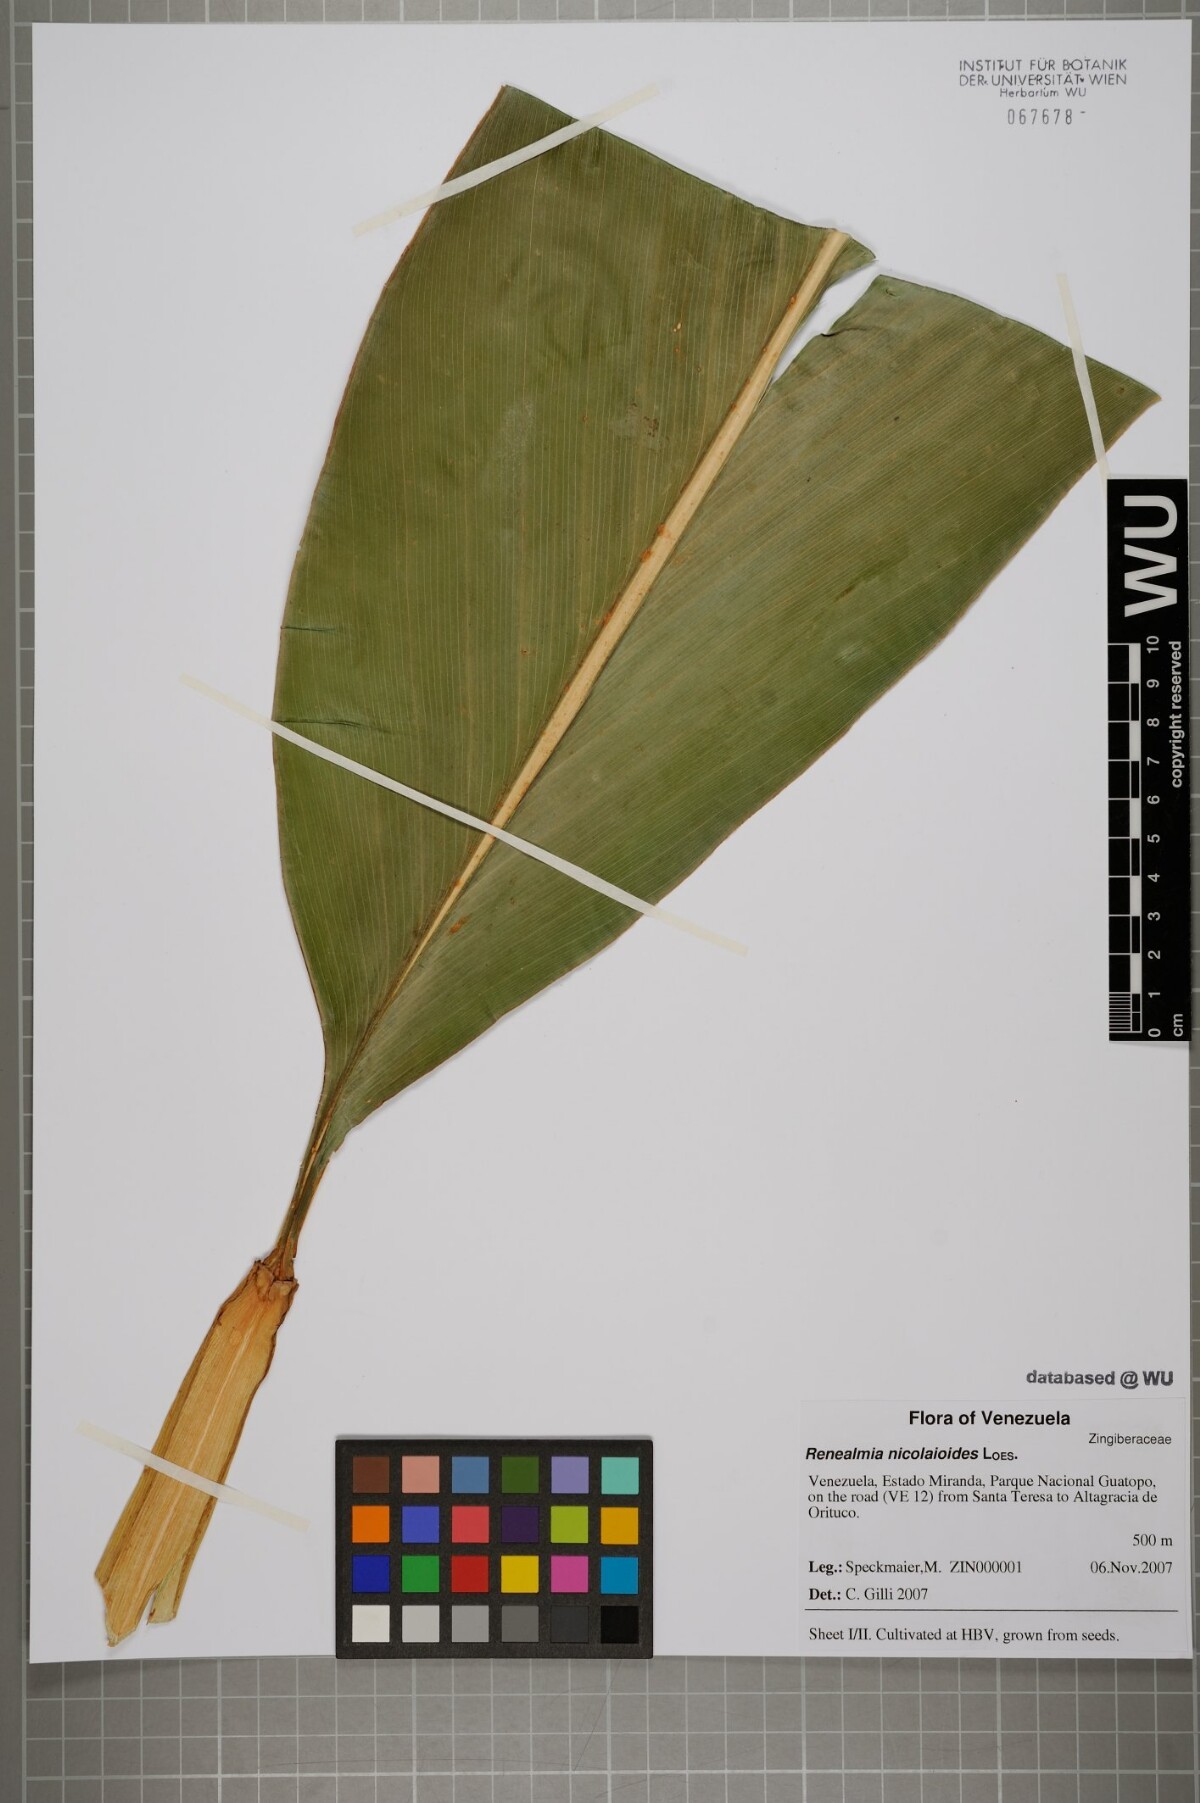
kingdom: Plantae
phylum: Tracheophyta
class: Liliopsida
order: Zingiberales
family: Zingiberaceae
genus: Renealmia
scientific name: Renealmia nicolaioides
